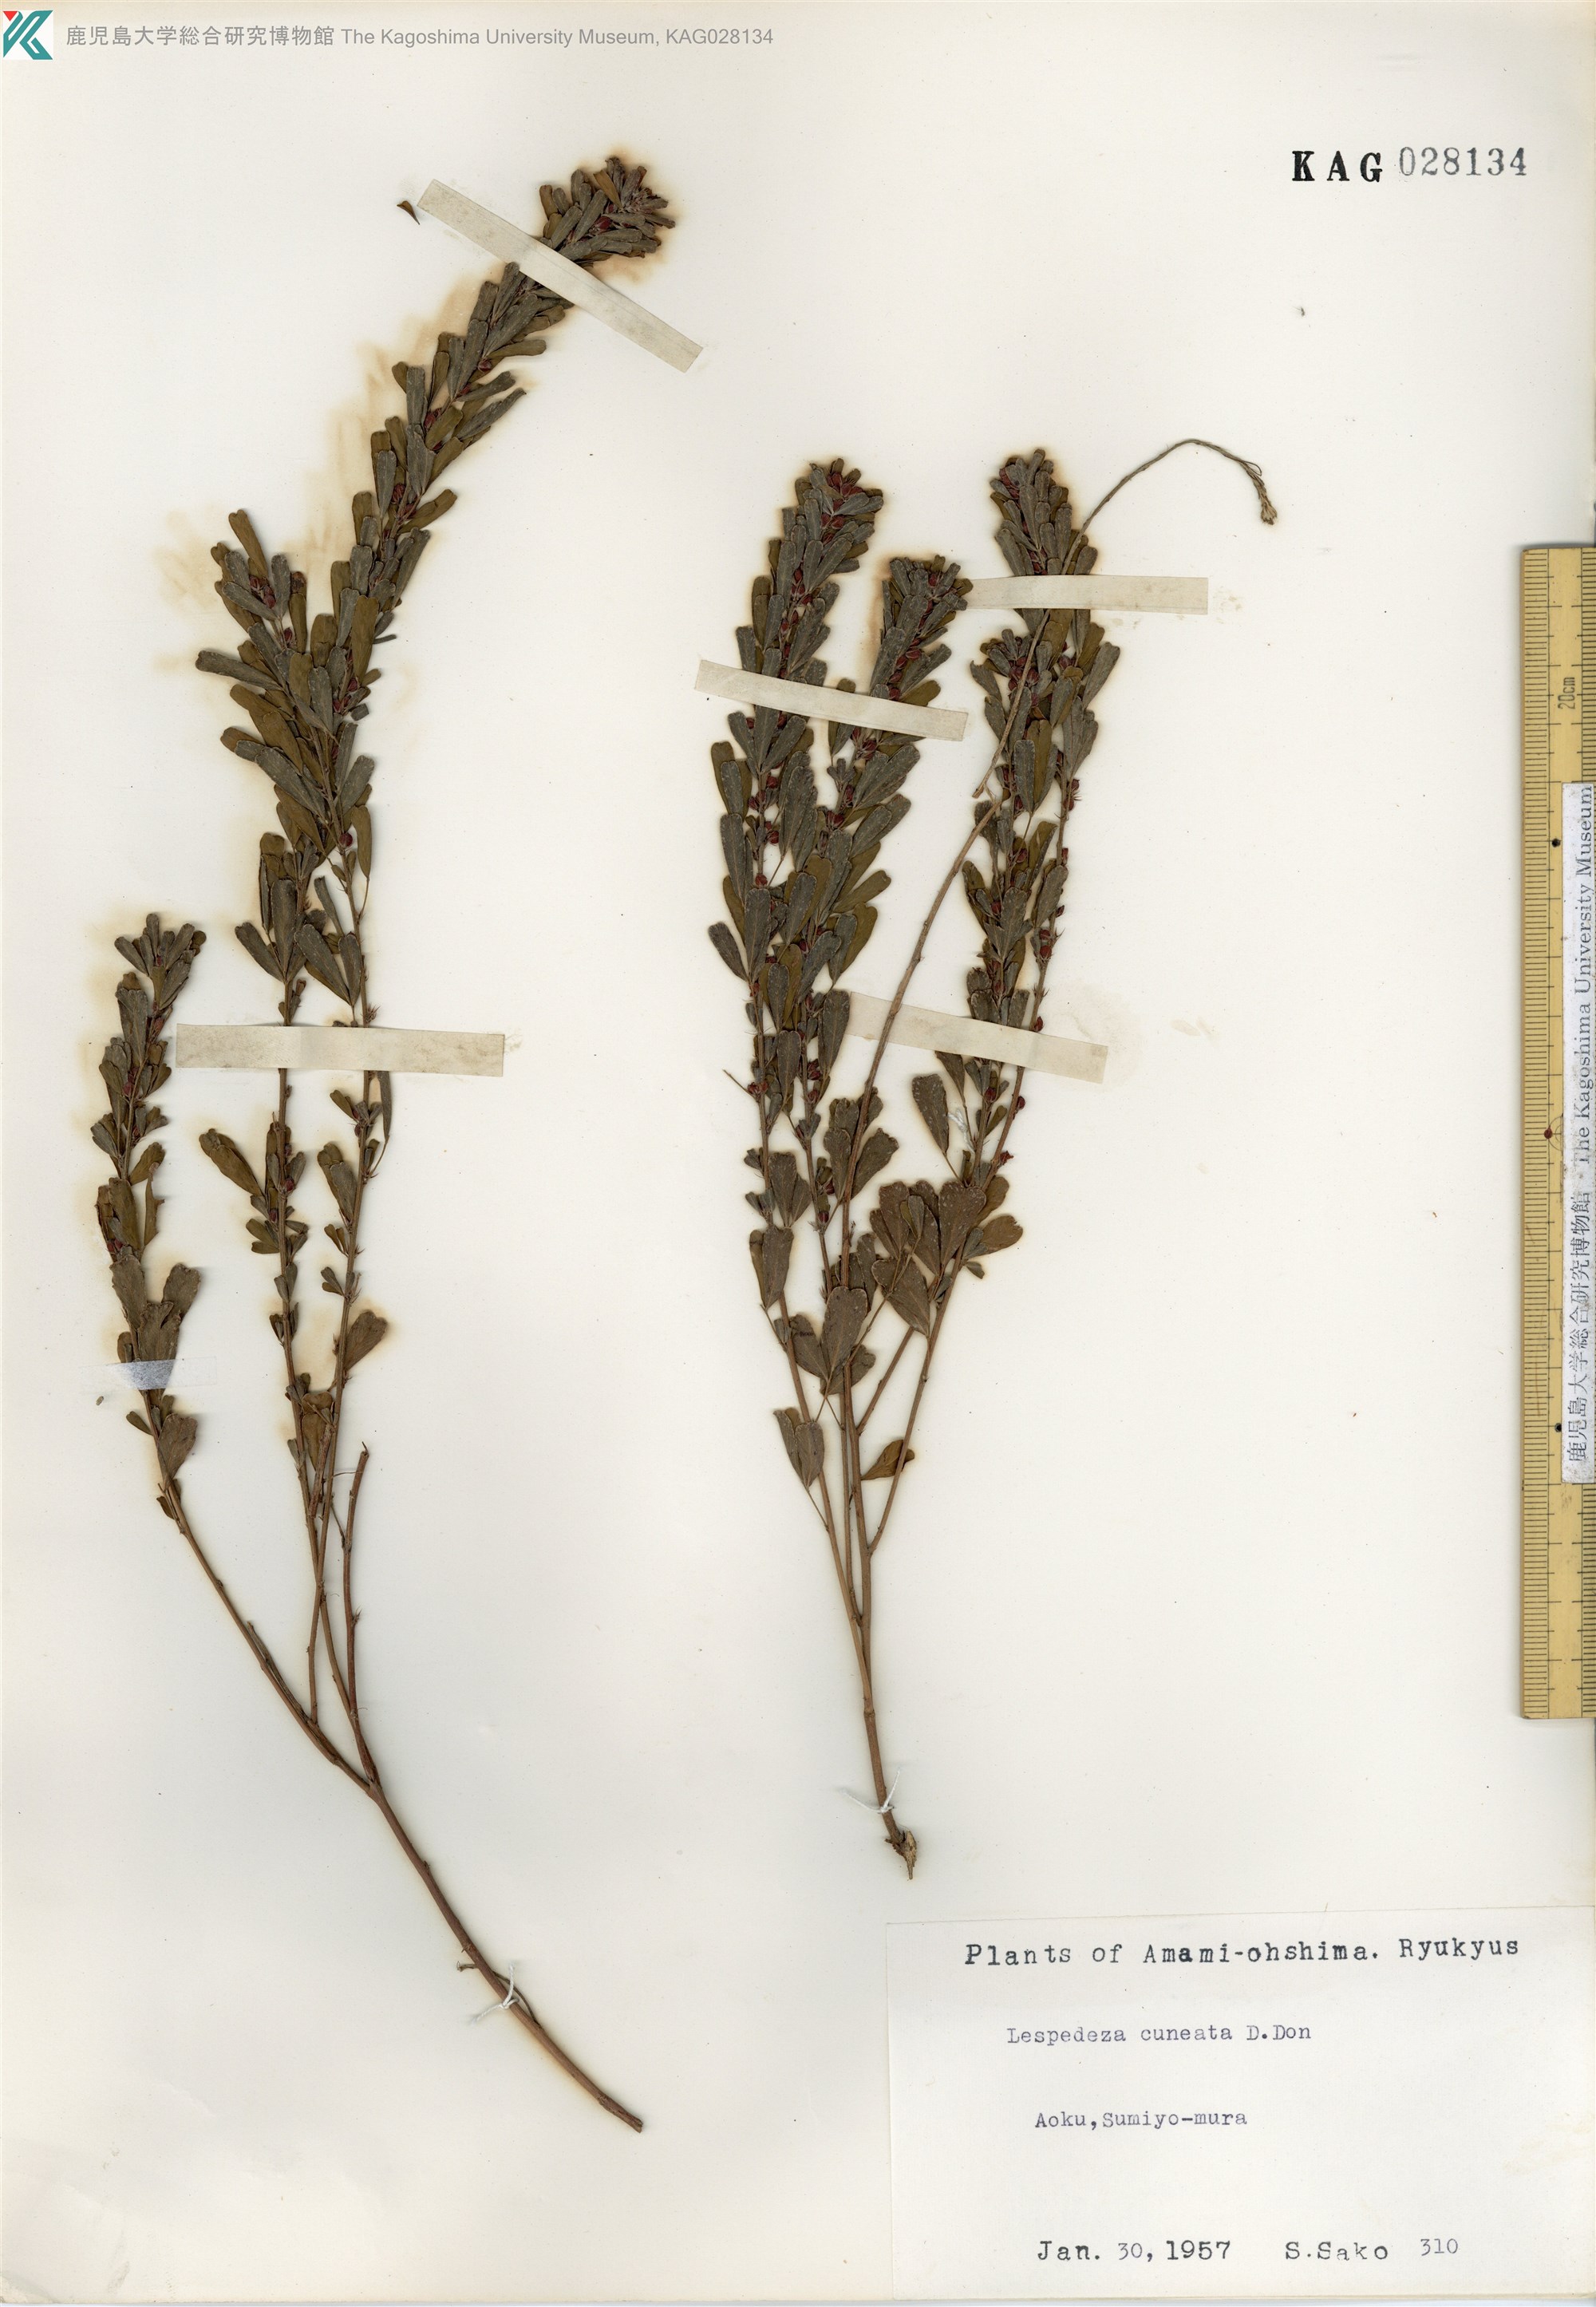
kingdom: Plantae
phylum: Tracheophyta
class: Magnoliopsida
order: Fabales
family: Fabaceae
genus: Lespedeza
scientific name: Lespedeza cuneata
